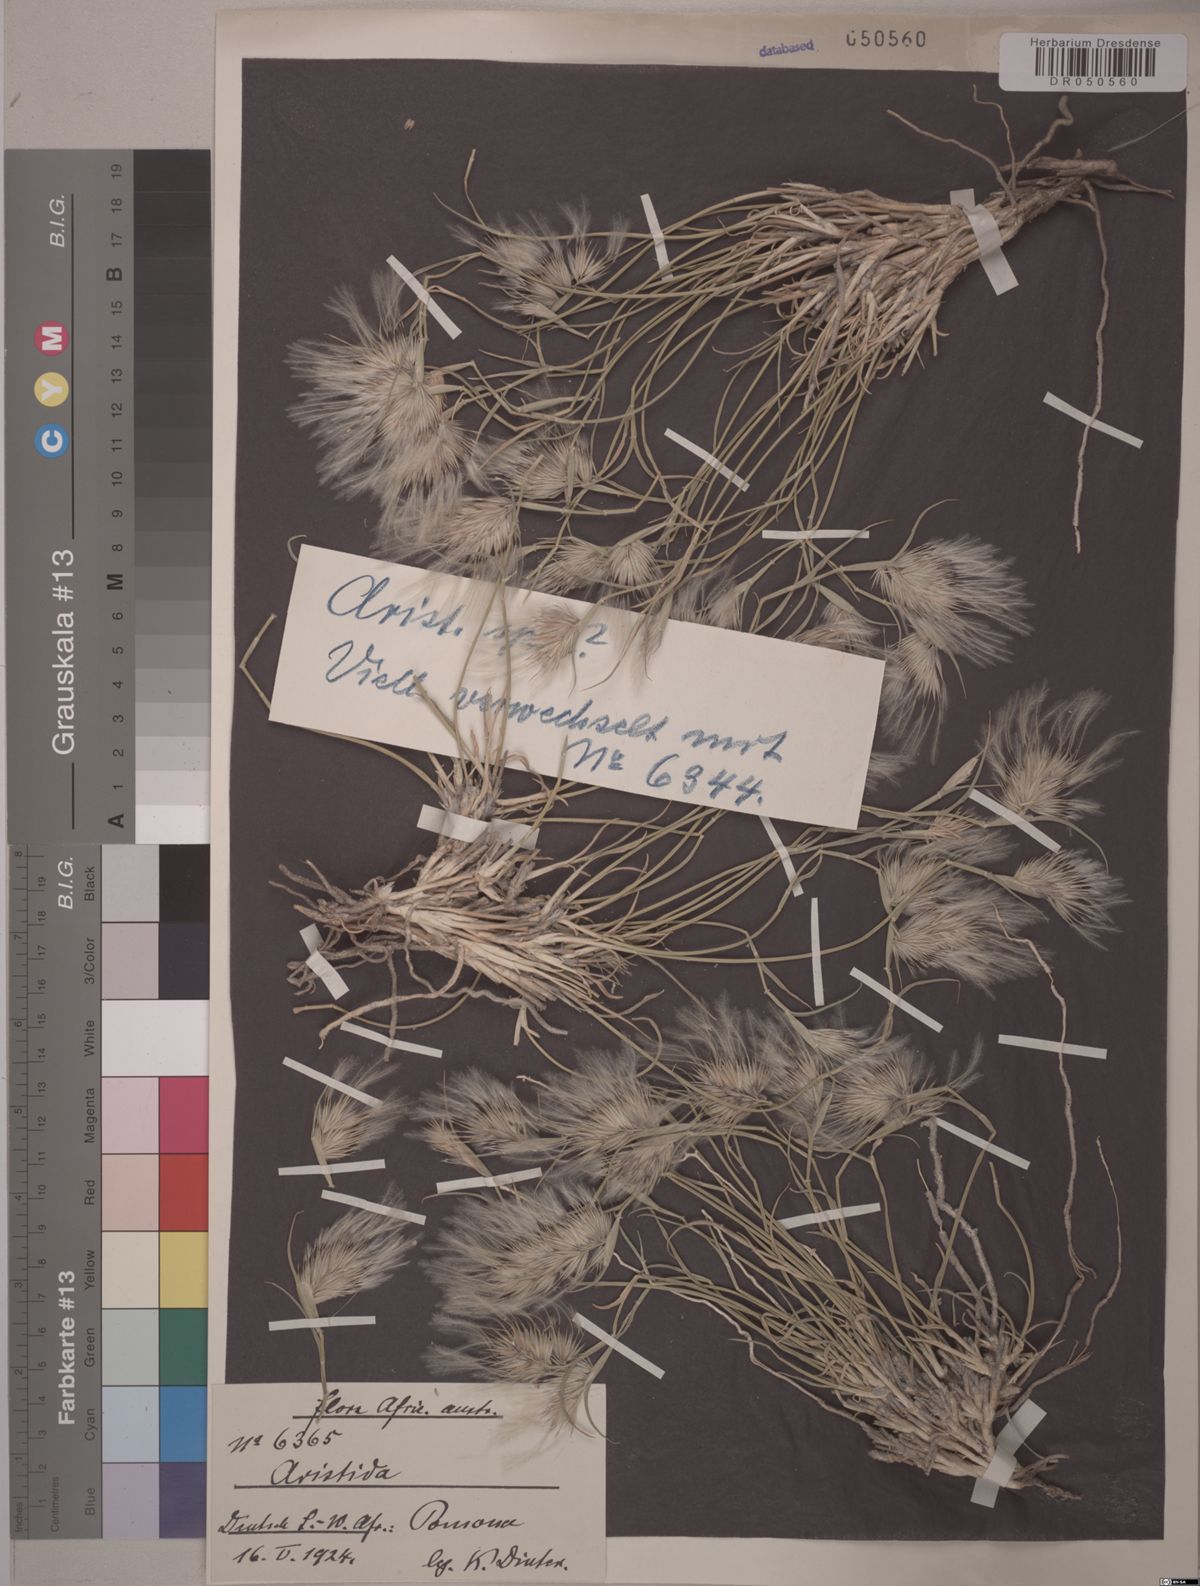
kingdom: Plantae
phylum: Tracheophyta
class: Liliopsida
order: Poales
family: Poaceae
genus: Aristida
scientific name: Aristida
